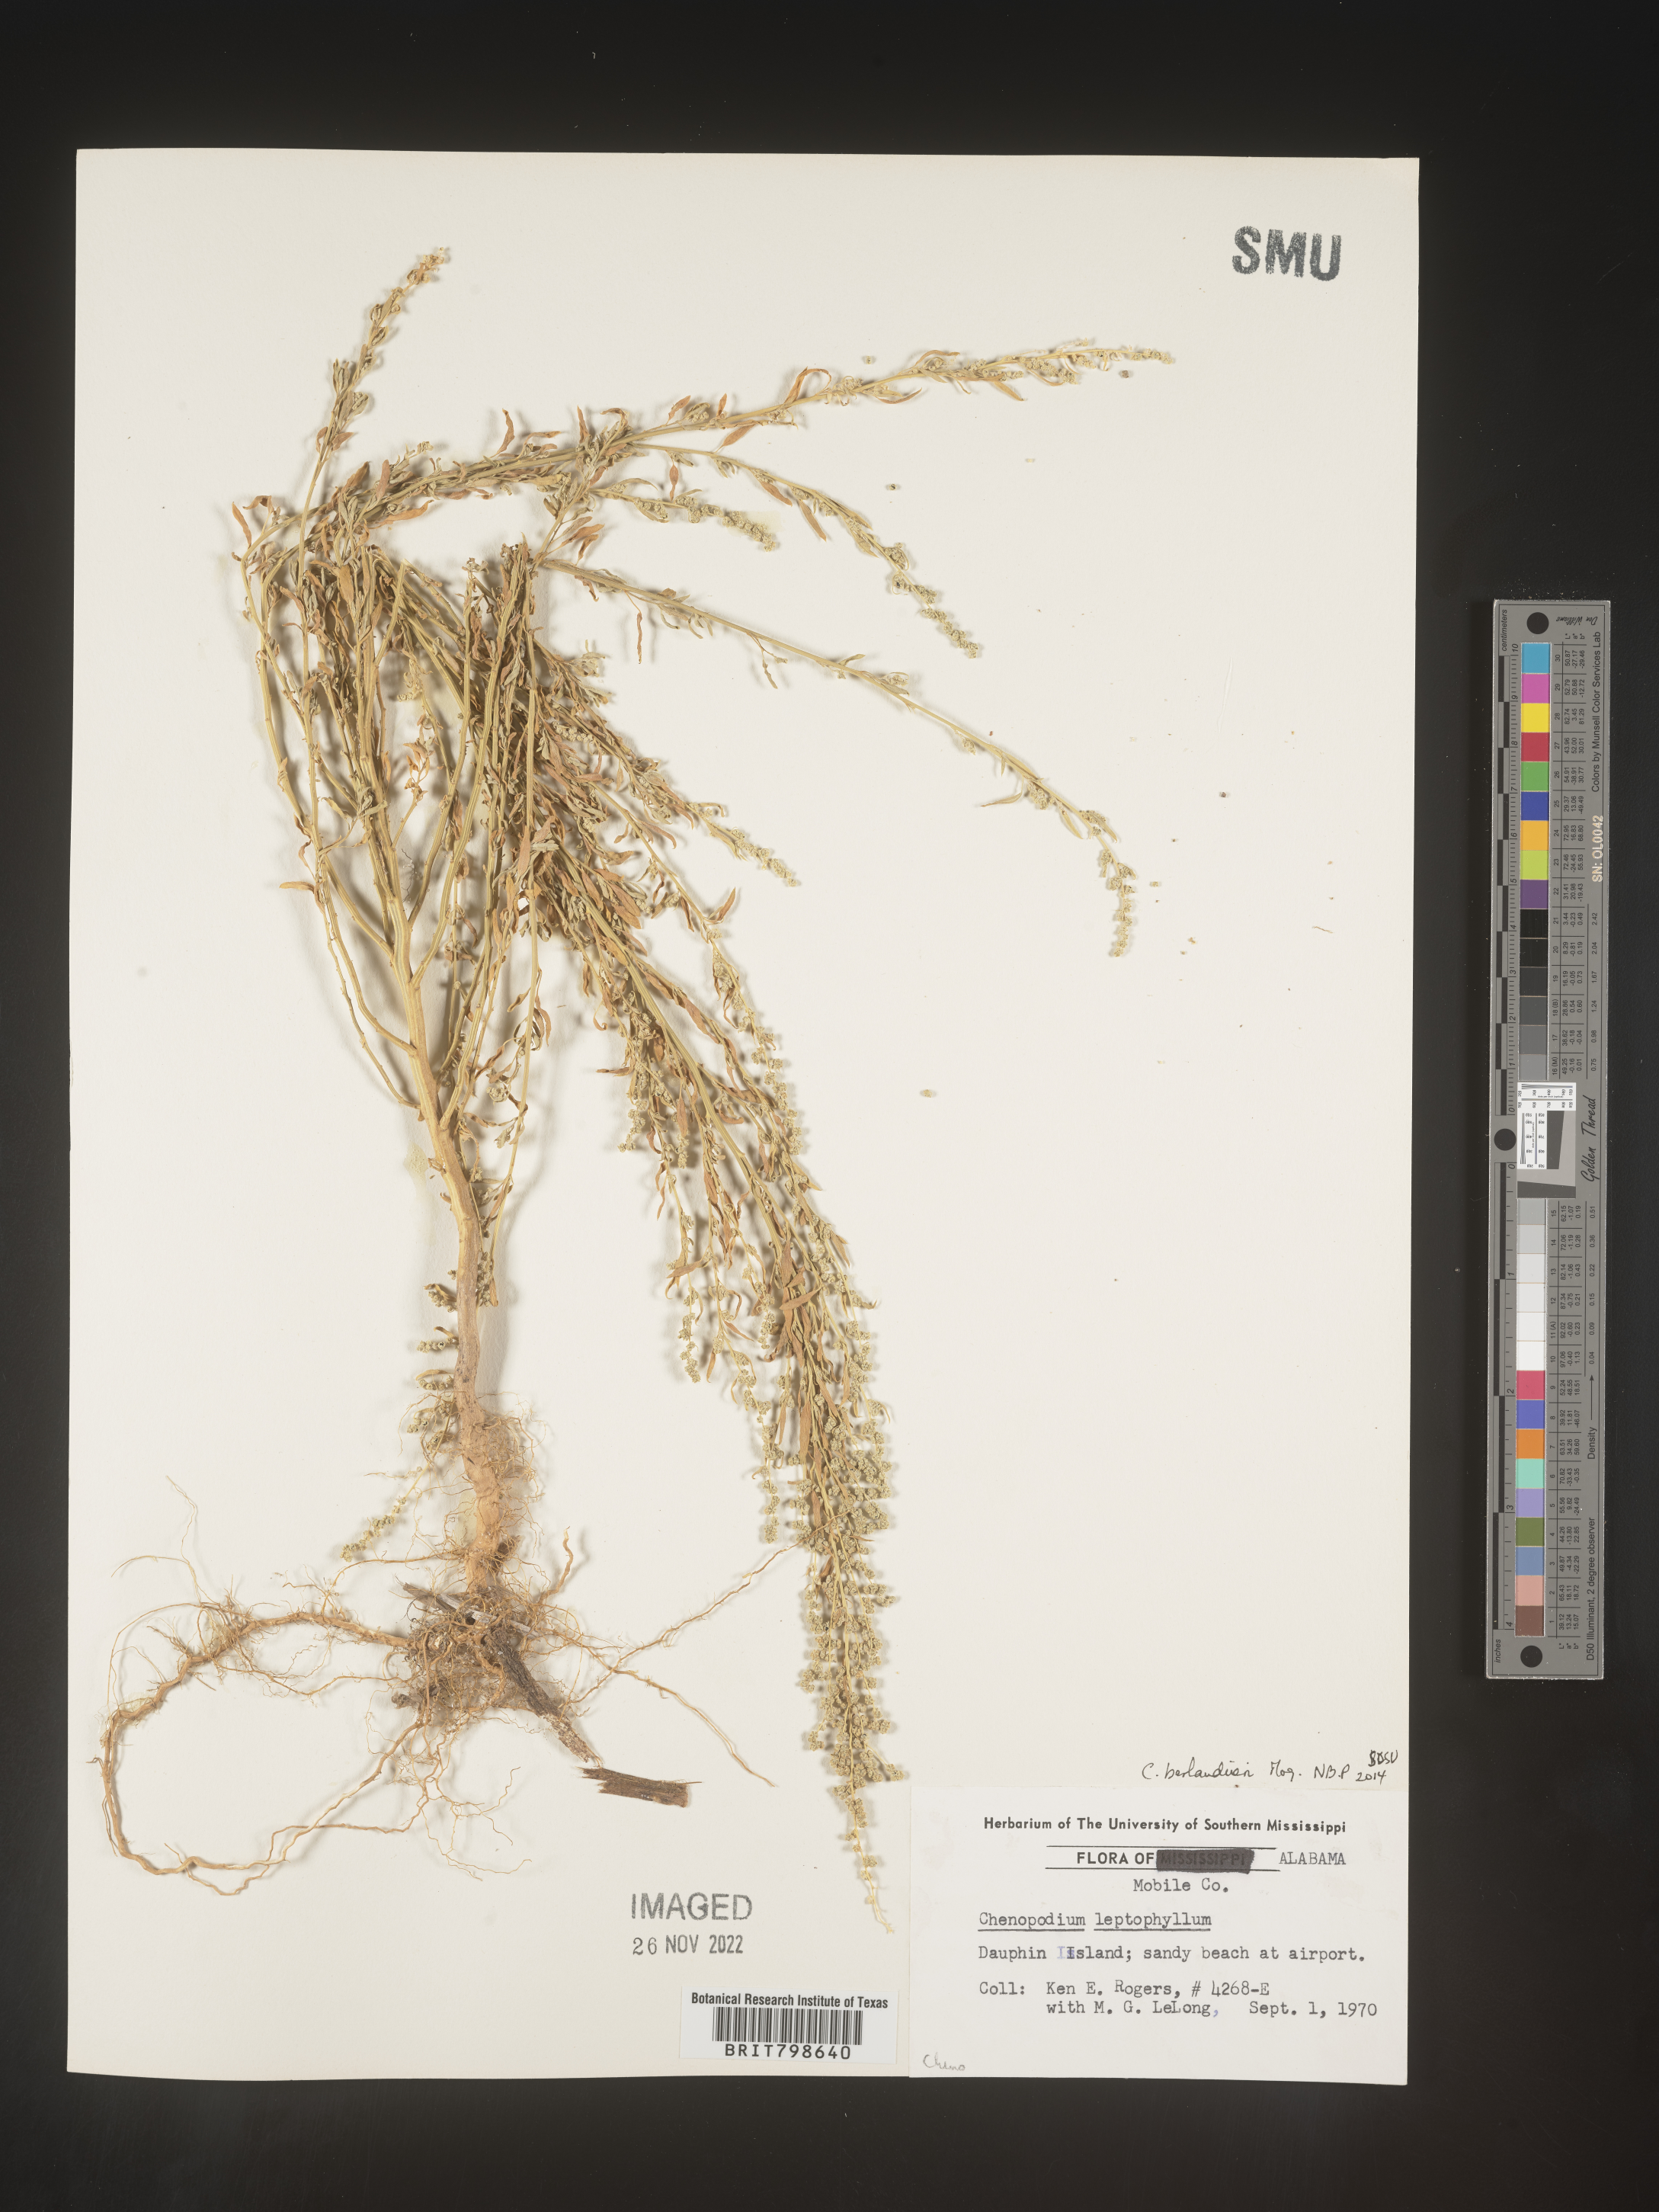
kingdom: Plantae
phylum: Tracheophyta
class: Magnoliopsida
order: Caryophyllales
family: Amaranthaceae
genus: Chenopodium
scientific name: Chenopodium berlandieri
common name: Pit-seed goosefoot
